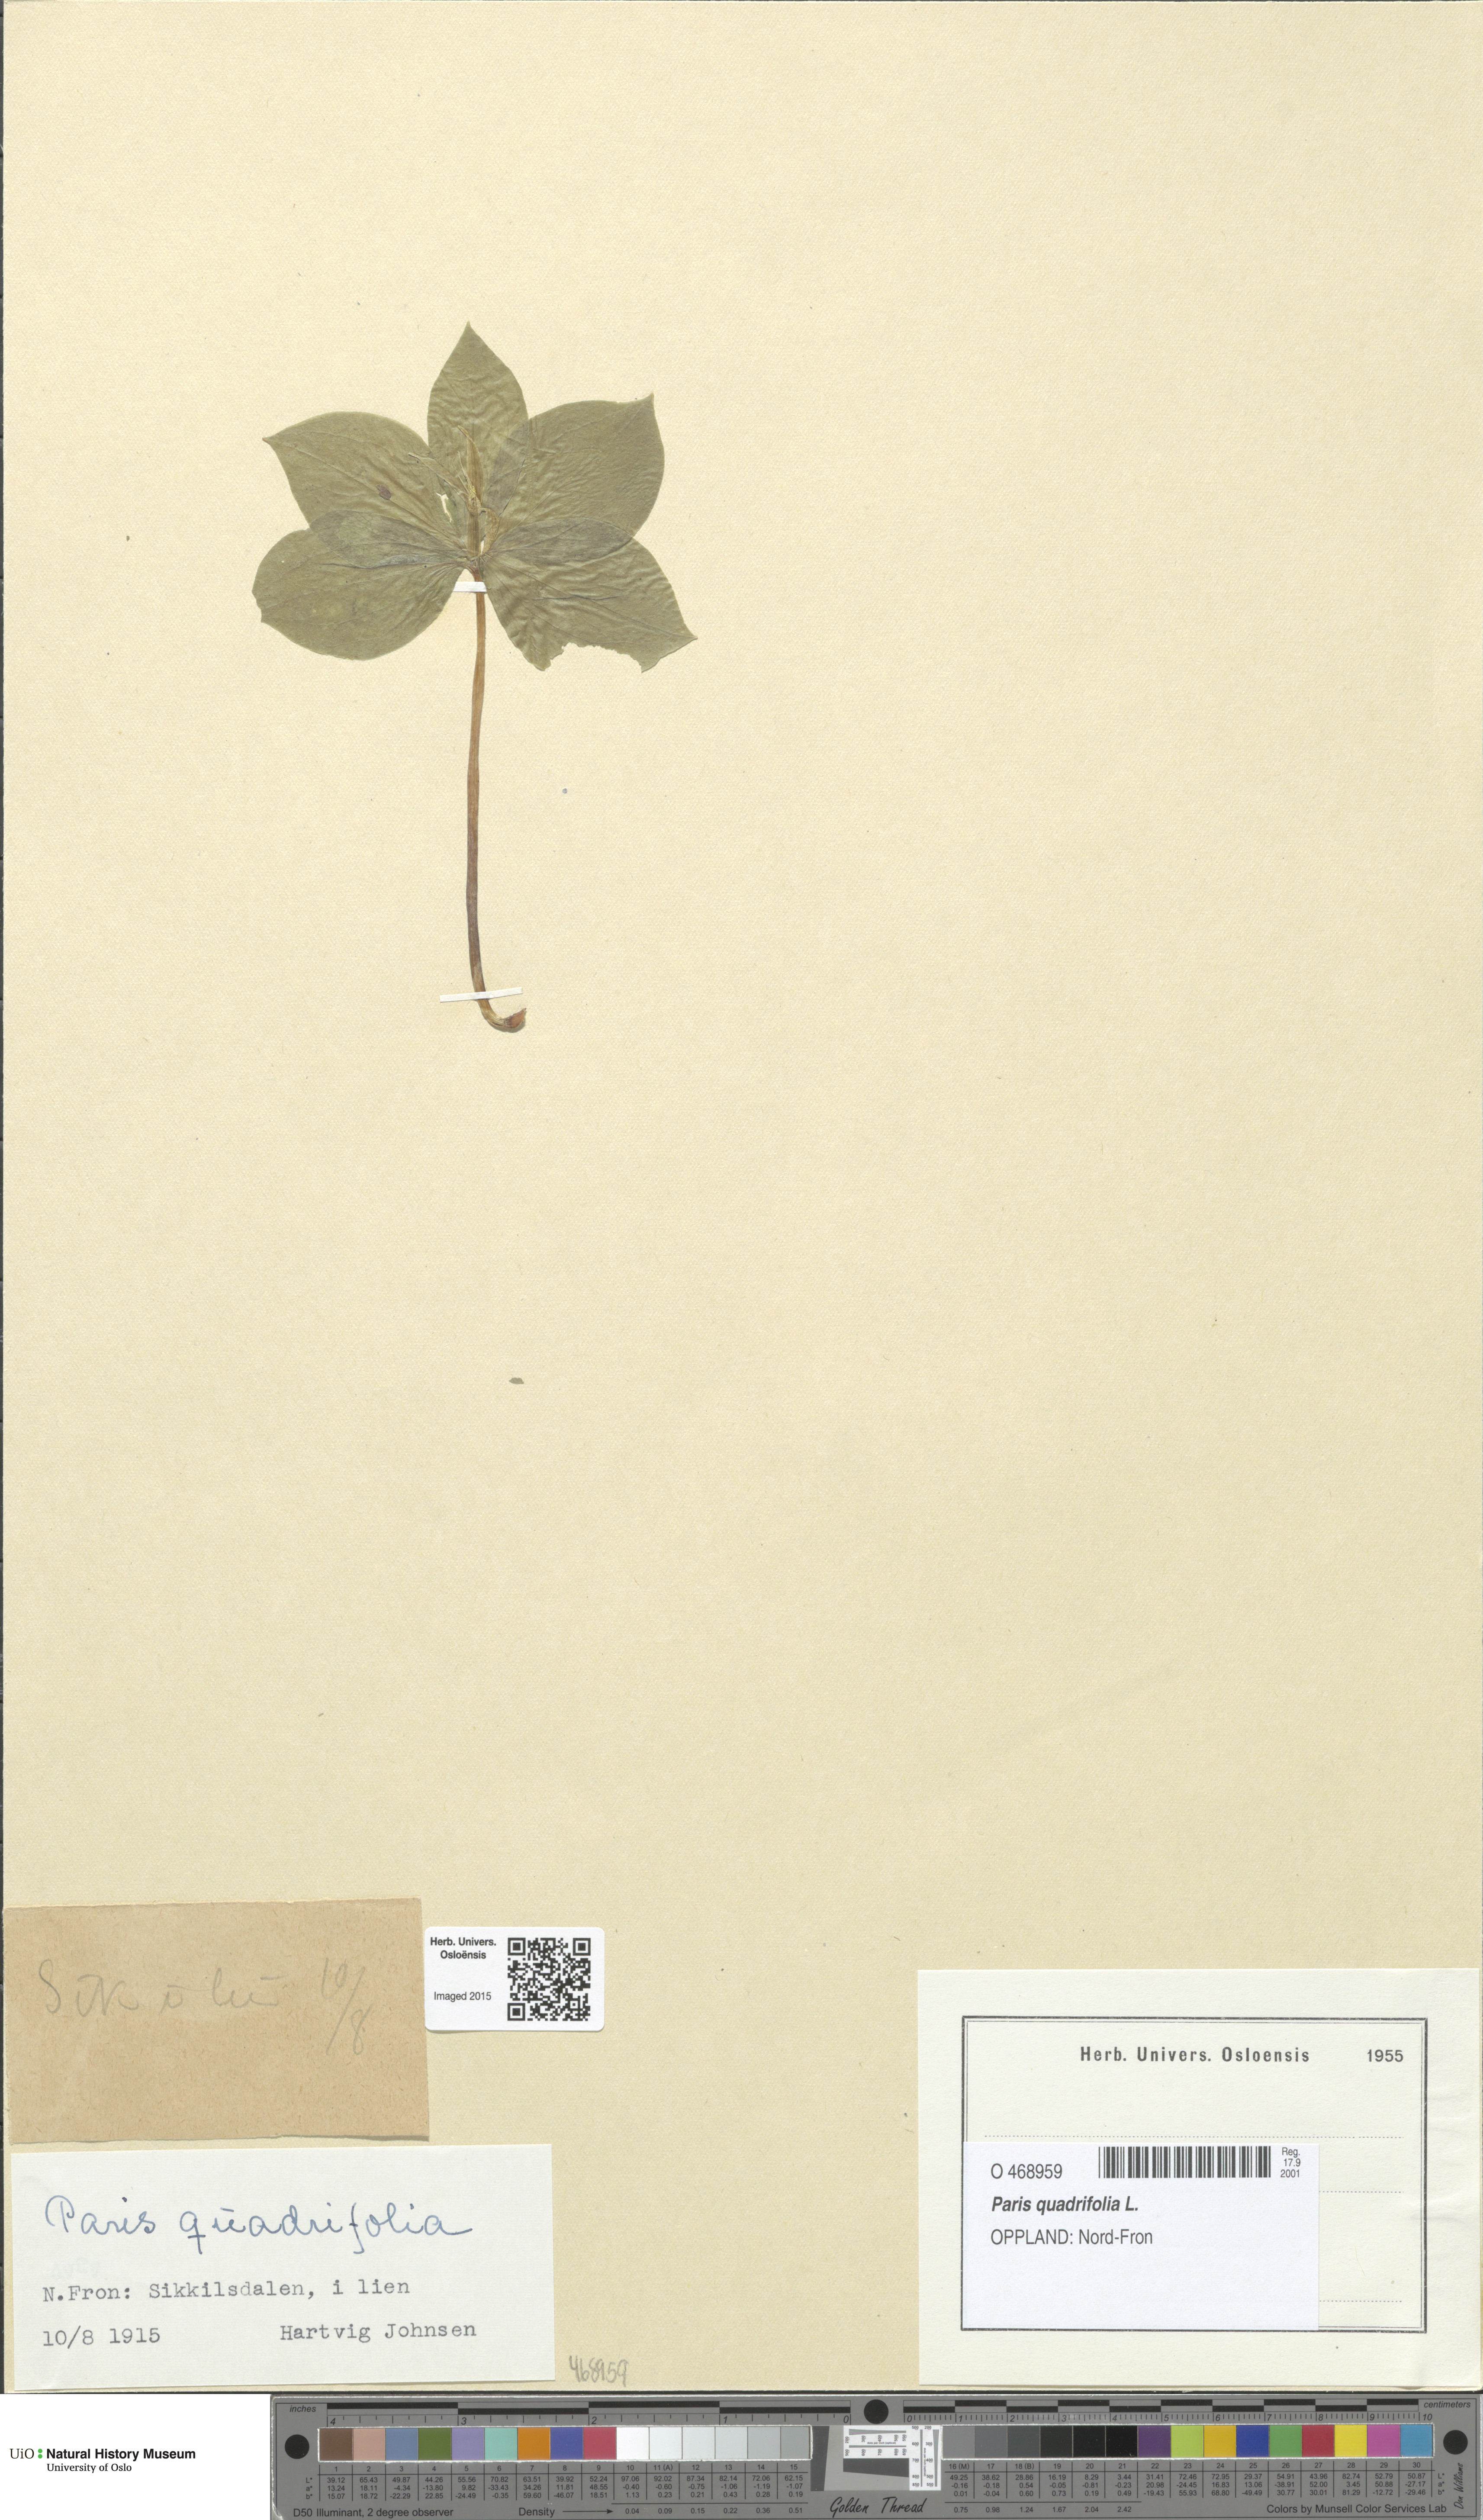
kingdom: Plantae
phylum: Tracheophyta
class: Liliopsida
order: Liliales
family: Melanthiaceae
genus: Paris
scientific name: Paris quadrifolia
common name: Herb-paris
